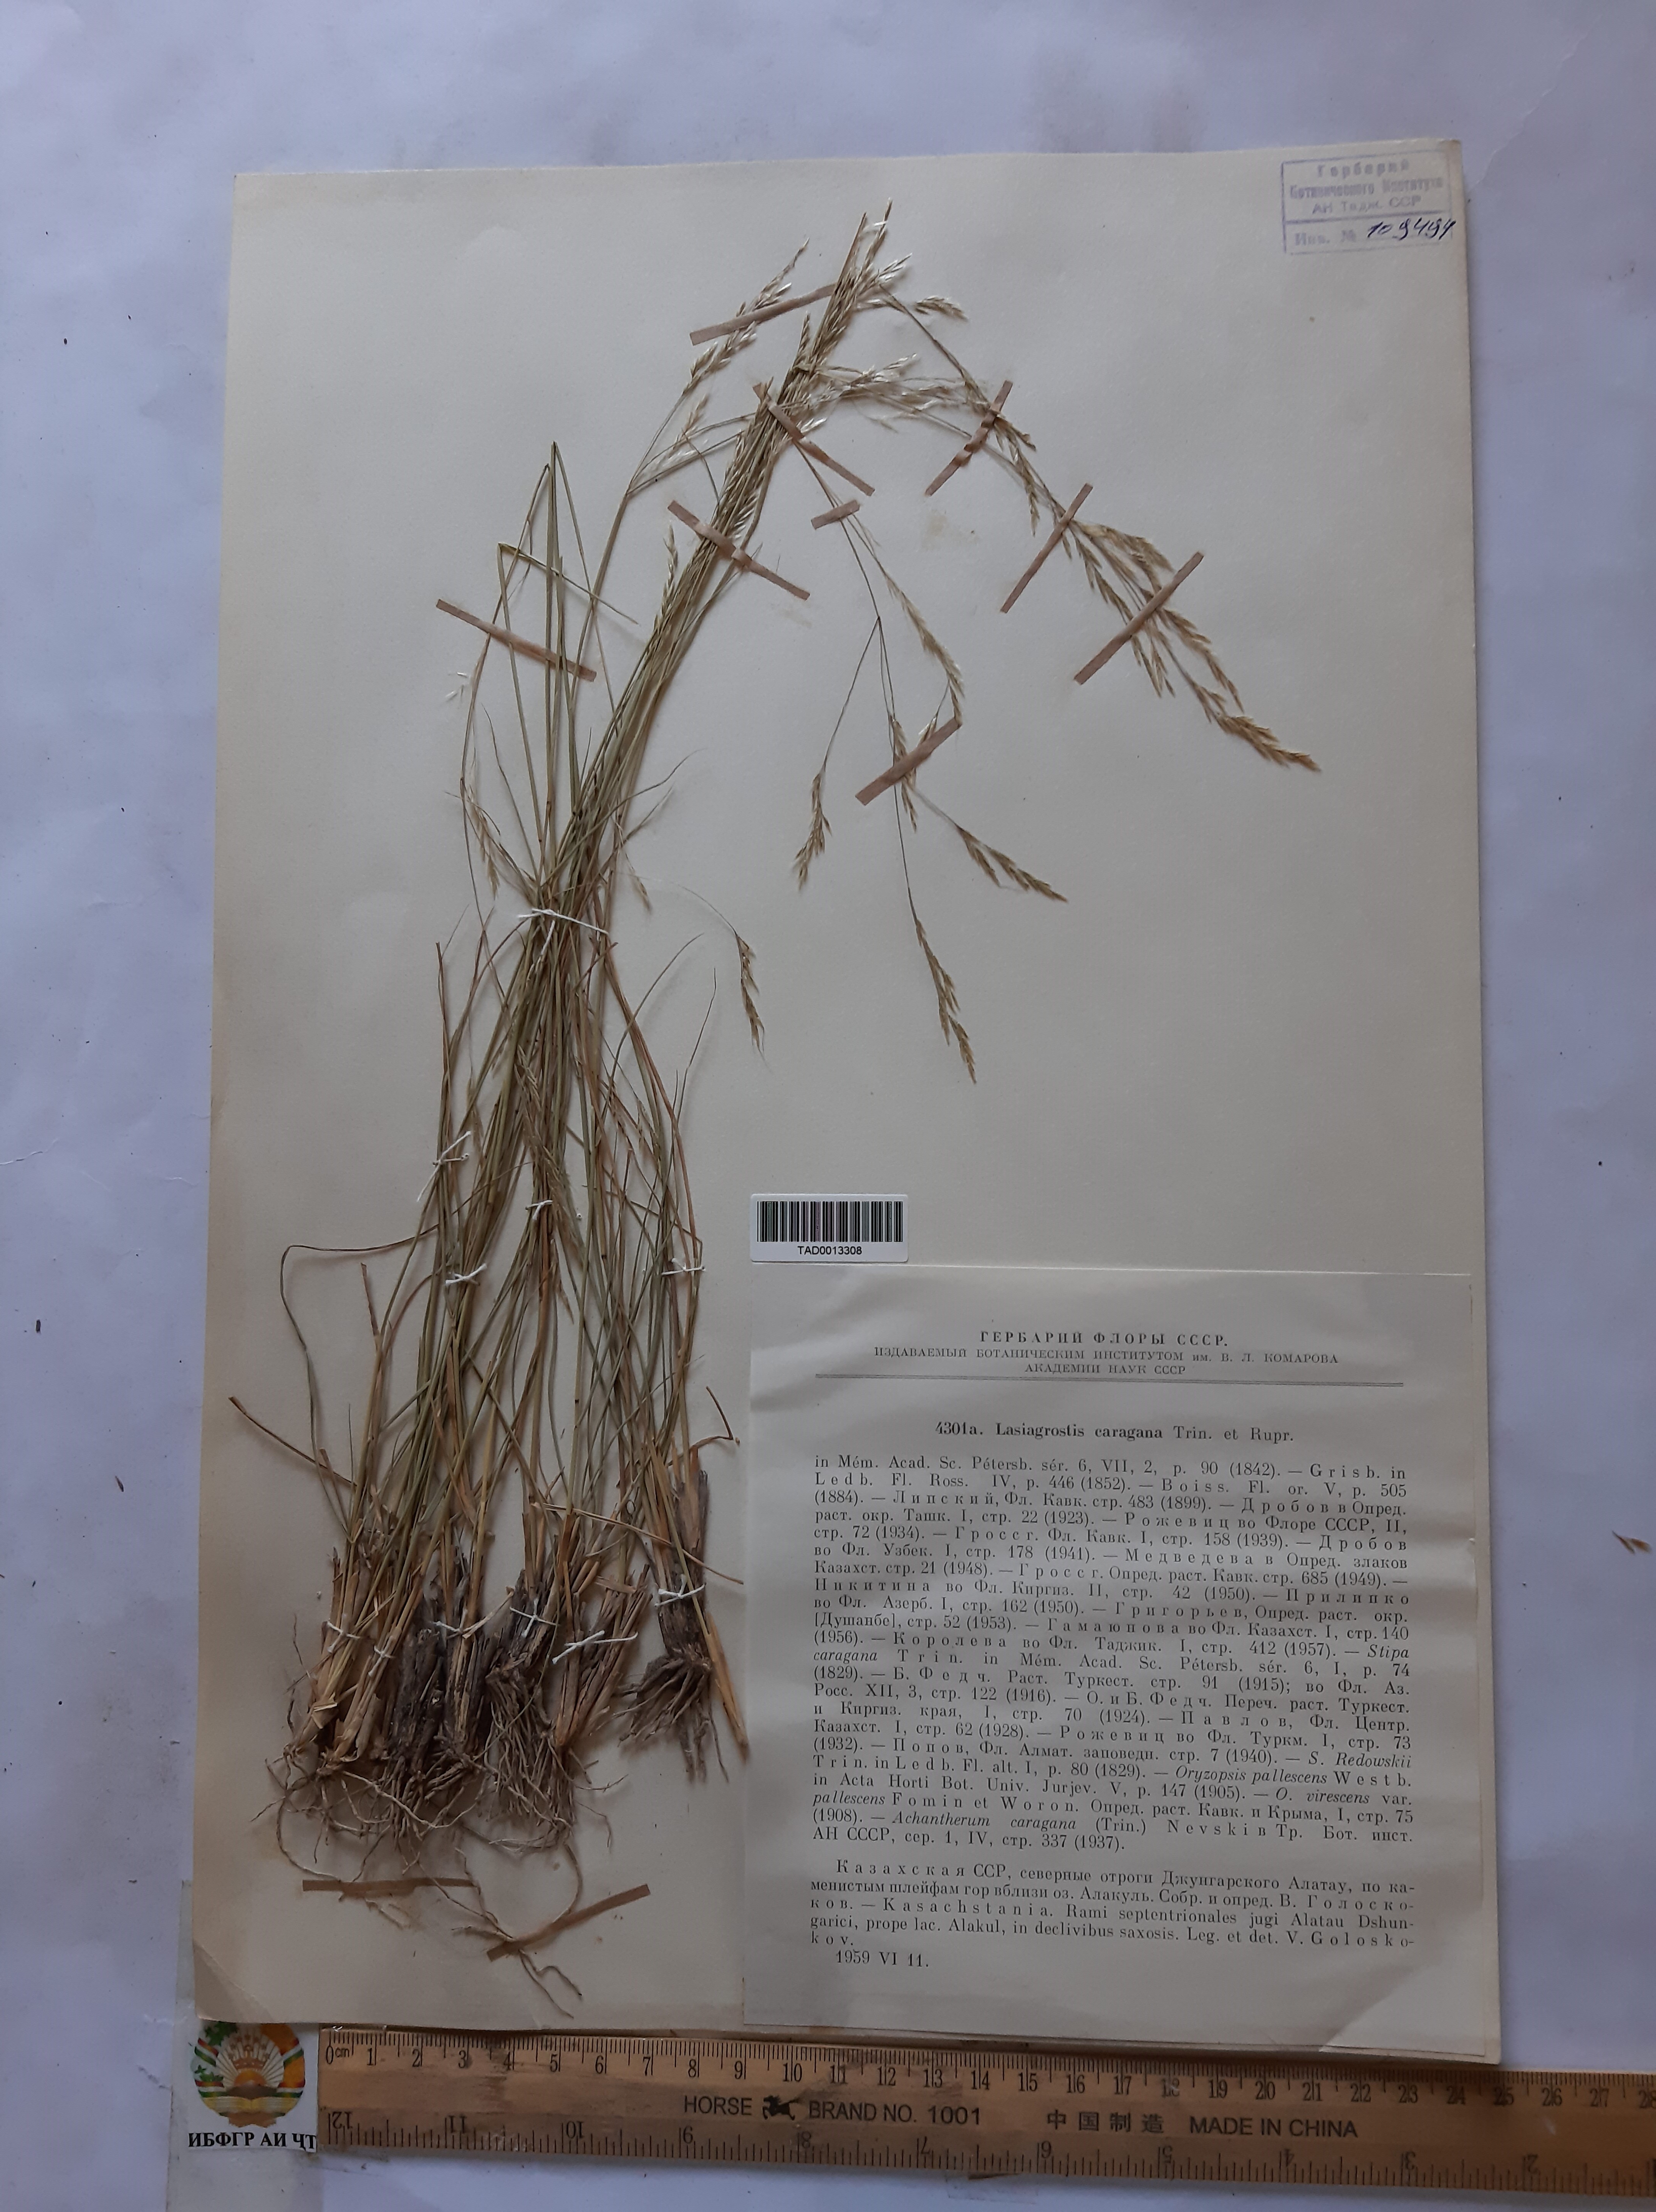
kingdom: Plantae
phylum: Tracheophyta
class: Liliopsida
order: Poales
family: Poaceae
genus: Stipa
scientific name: Stipa conferta
